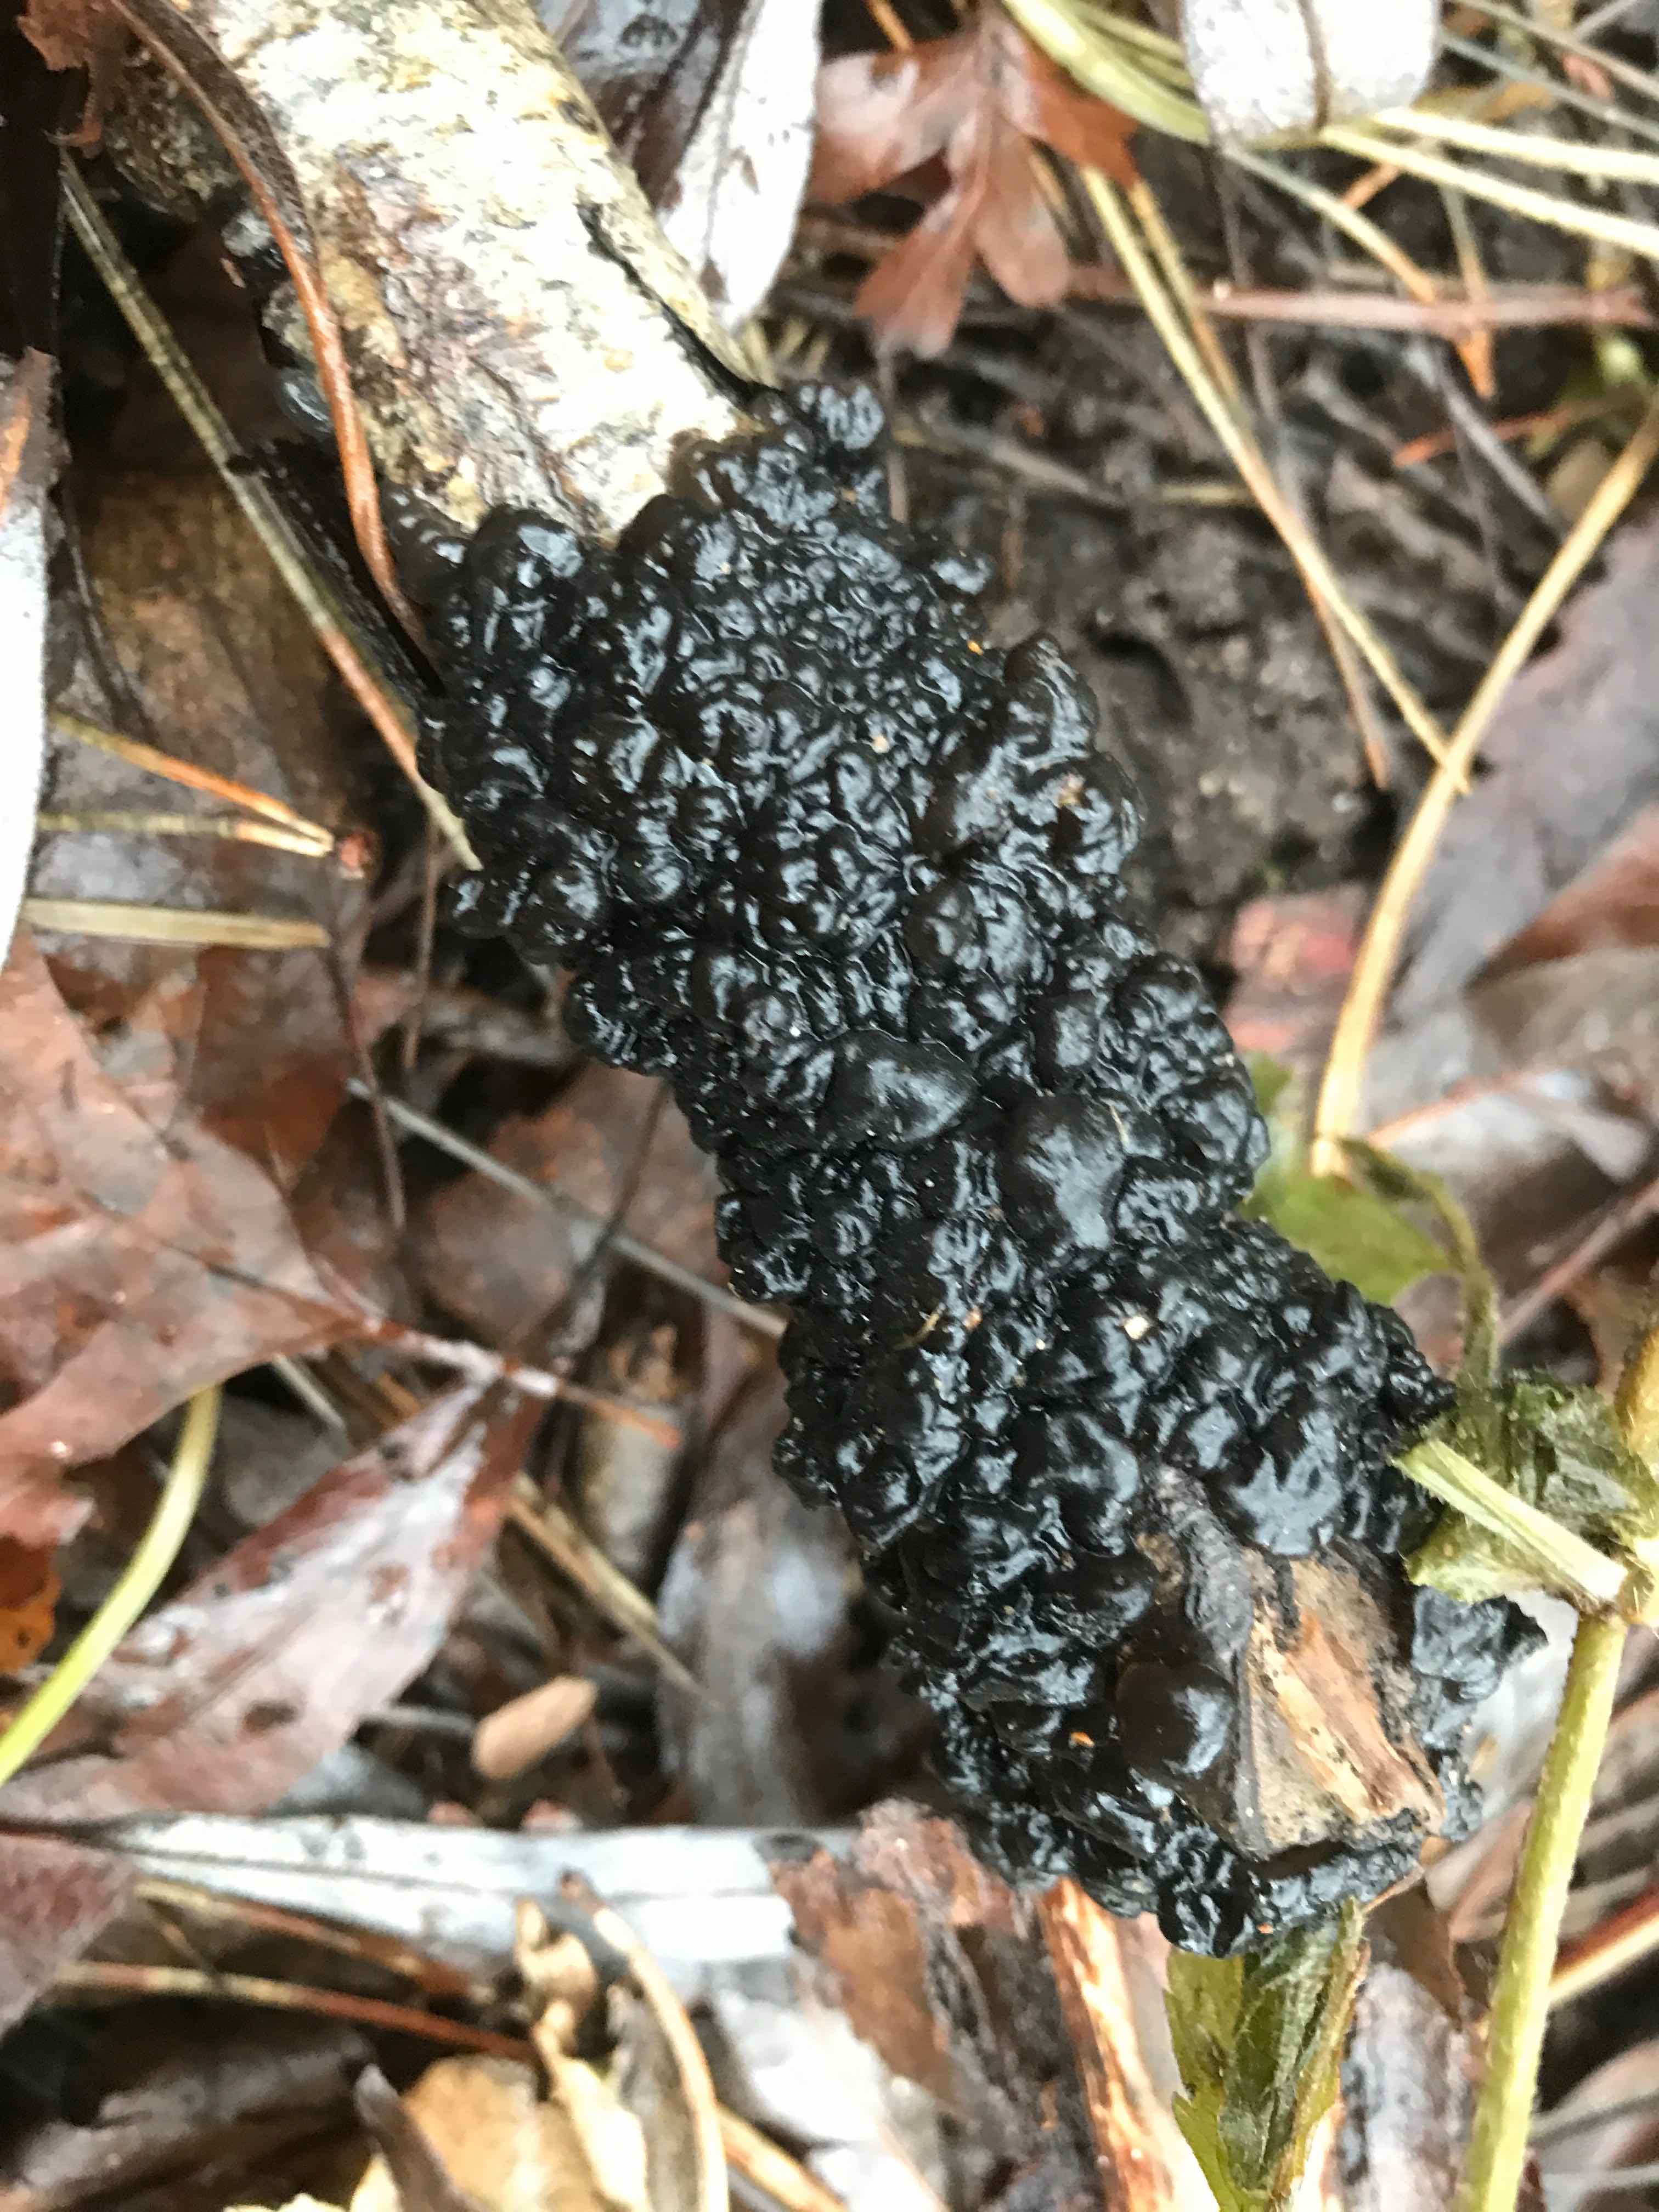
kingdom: Fungi
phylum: Basidiomycota
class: Agaricomycetes
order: Auriculariales
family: Auriculariaceae
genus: Exidia
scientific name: Exidia nigricans
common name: almindelig bævretop
